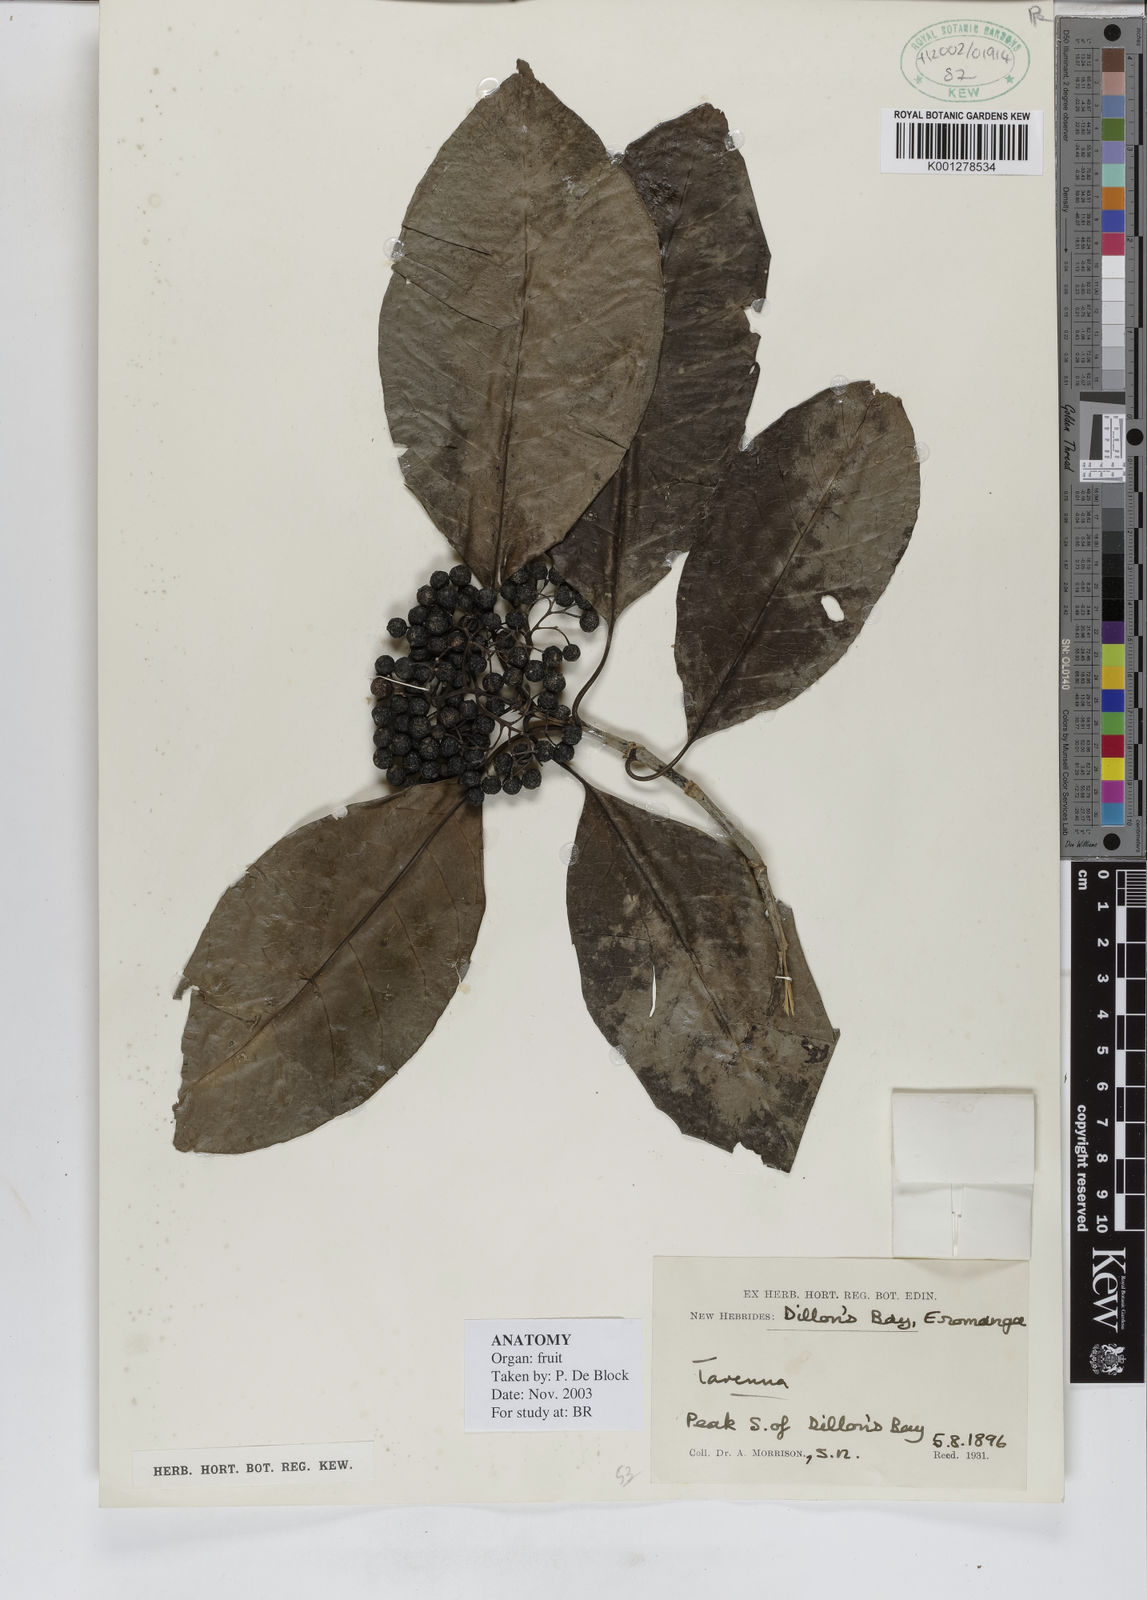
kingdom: Plantae
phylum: Tracheophyta
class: Magnoliopsida
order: Gentianales
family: Rubiaceae
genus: Tarenna
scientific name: Tarenna
